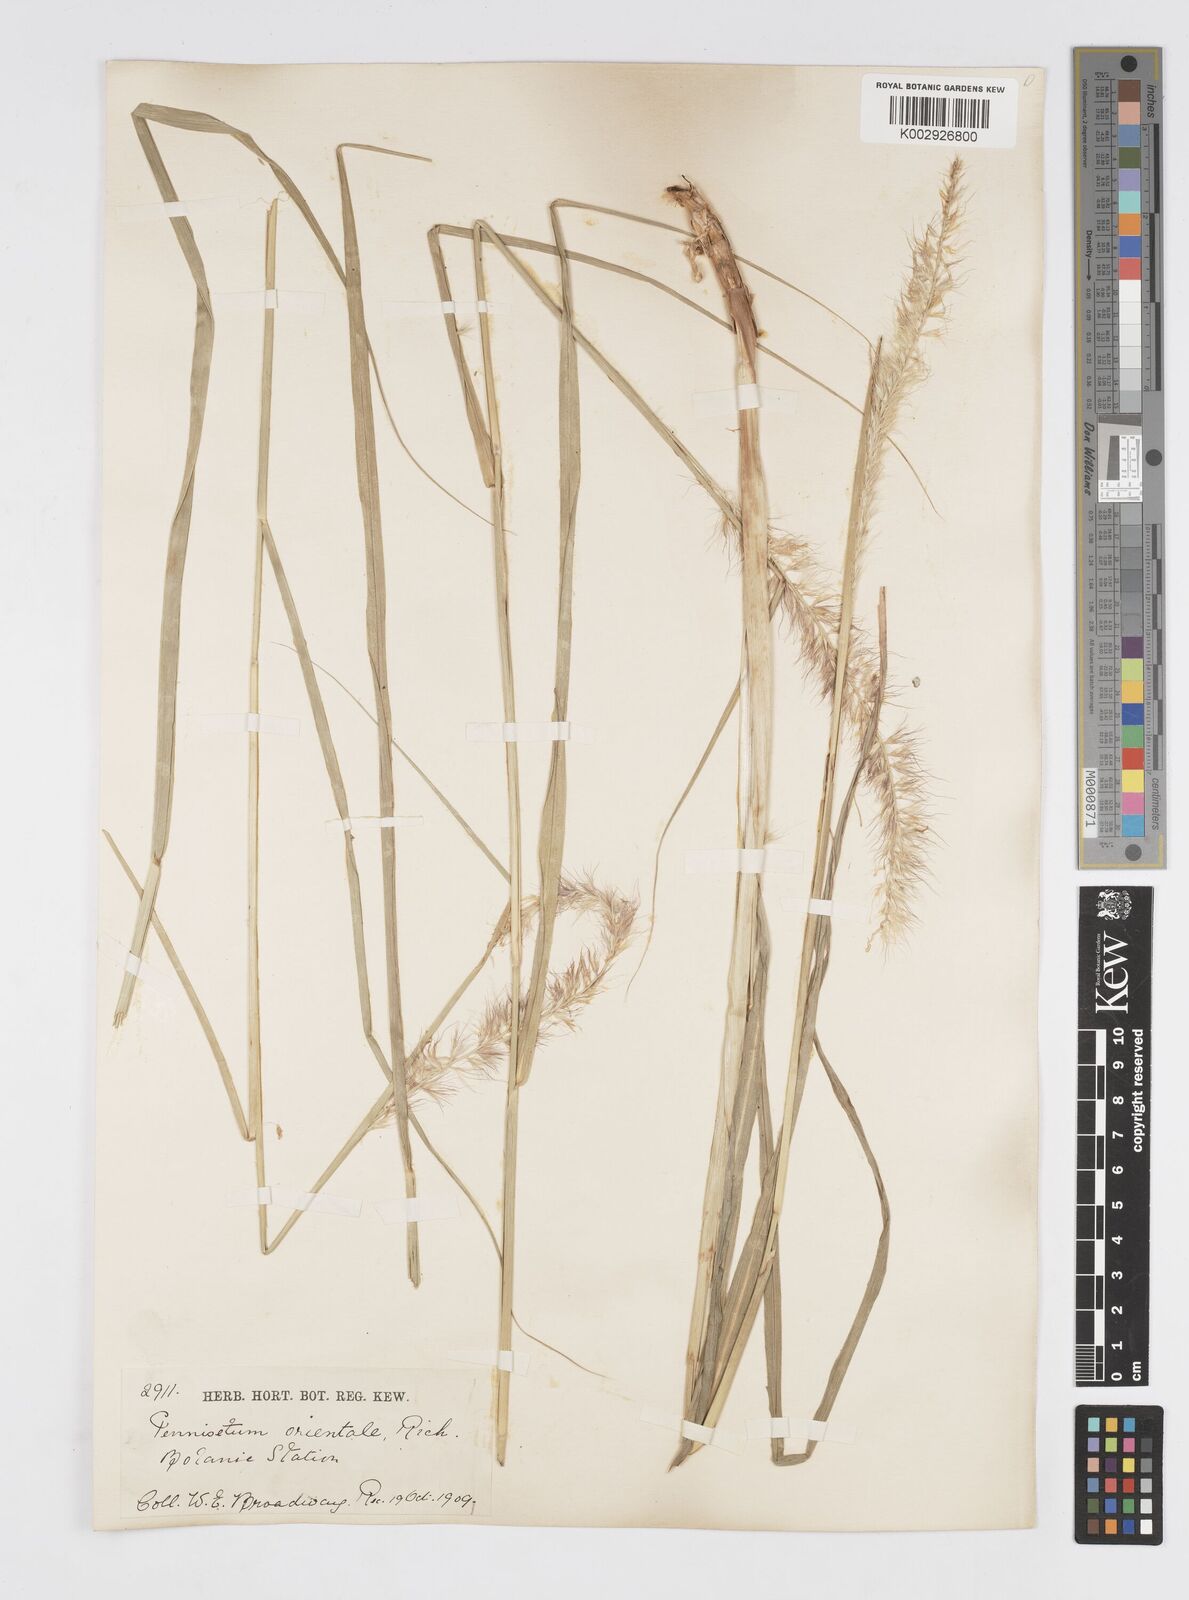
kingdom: Plantae
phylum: Tracheophyta
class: Liliopsida
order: Poales
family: Poaceae
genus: Cenchrus
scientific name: Cenchrus orientalis
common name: Oriental fountain grass
